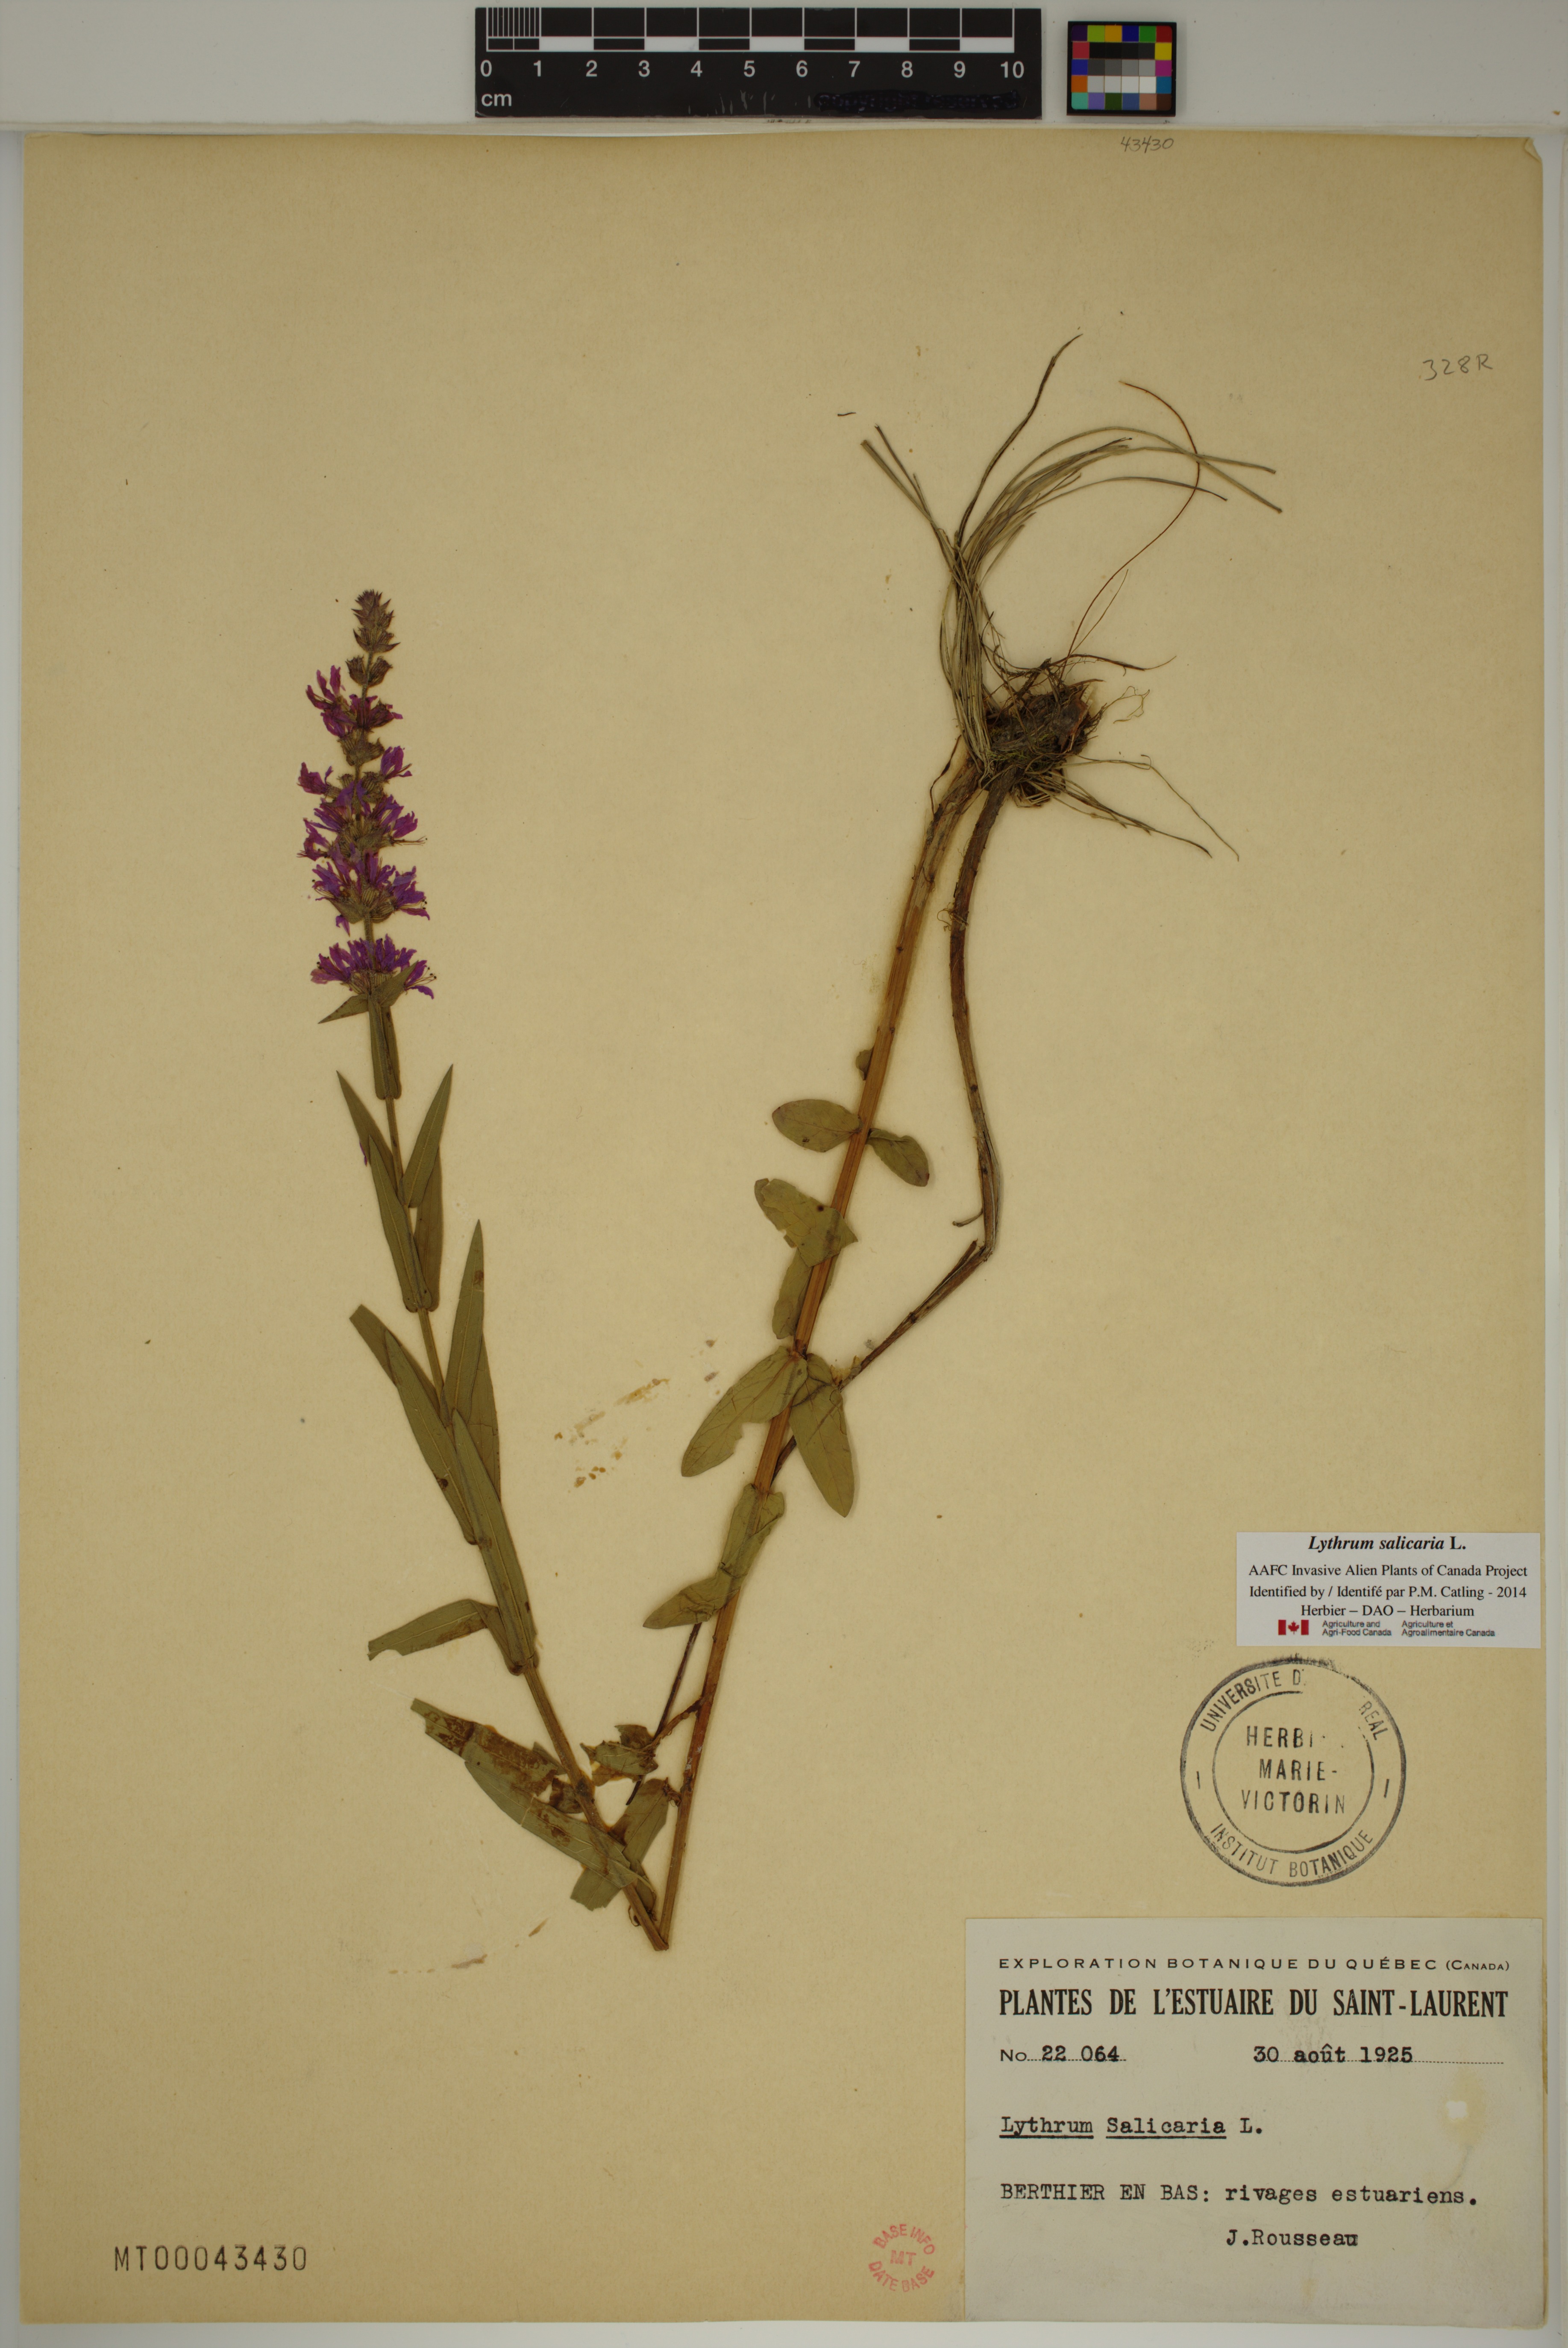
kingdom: Plantae
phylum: Tracheophyta
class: Magnoliopsida
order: Myrtales
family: Lythraceae
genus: Lythrum
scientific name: Lythrum salicaria
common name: Purple loosestrife
